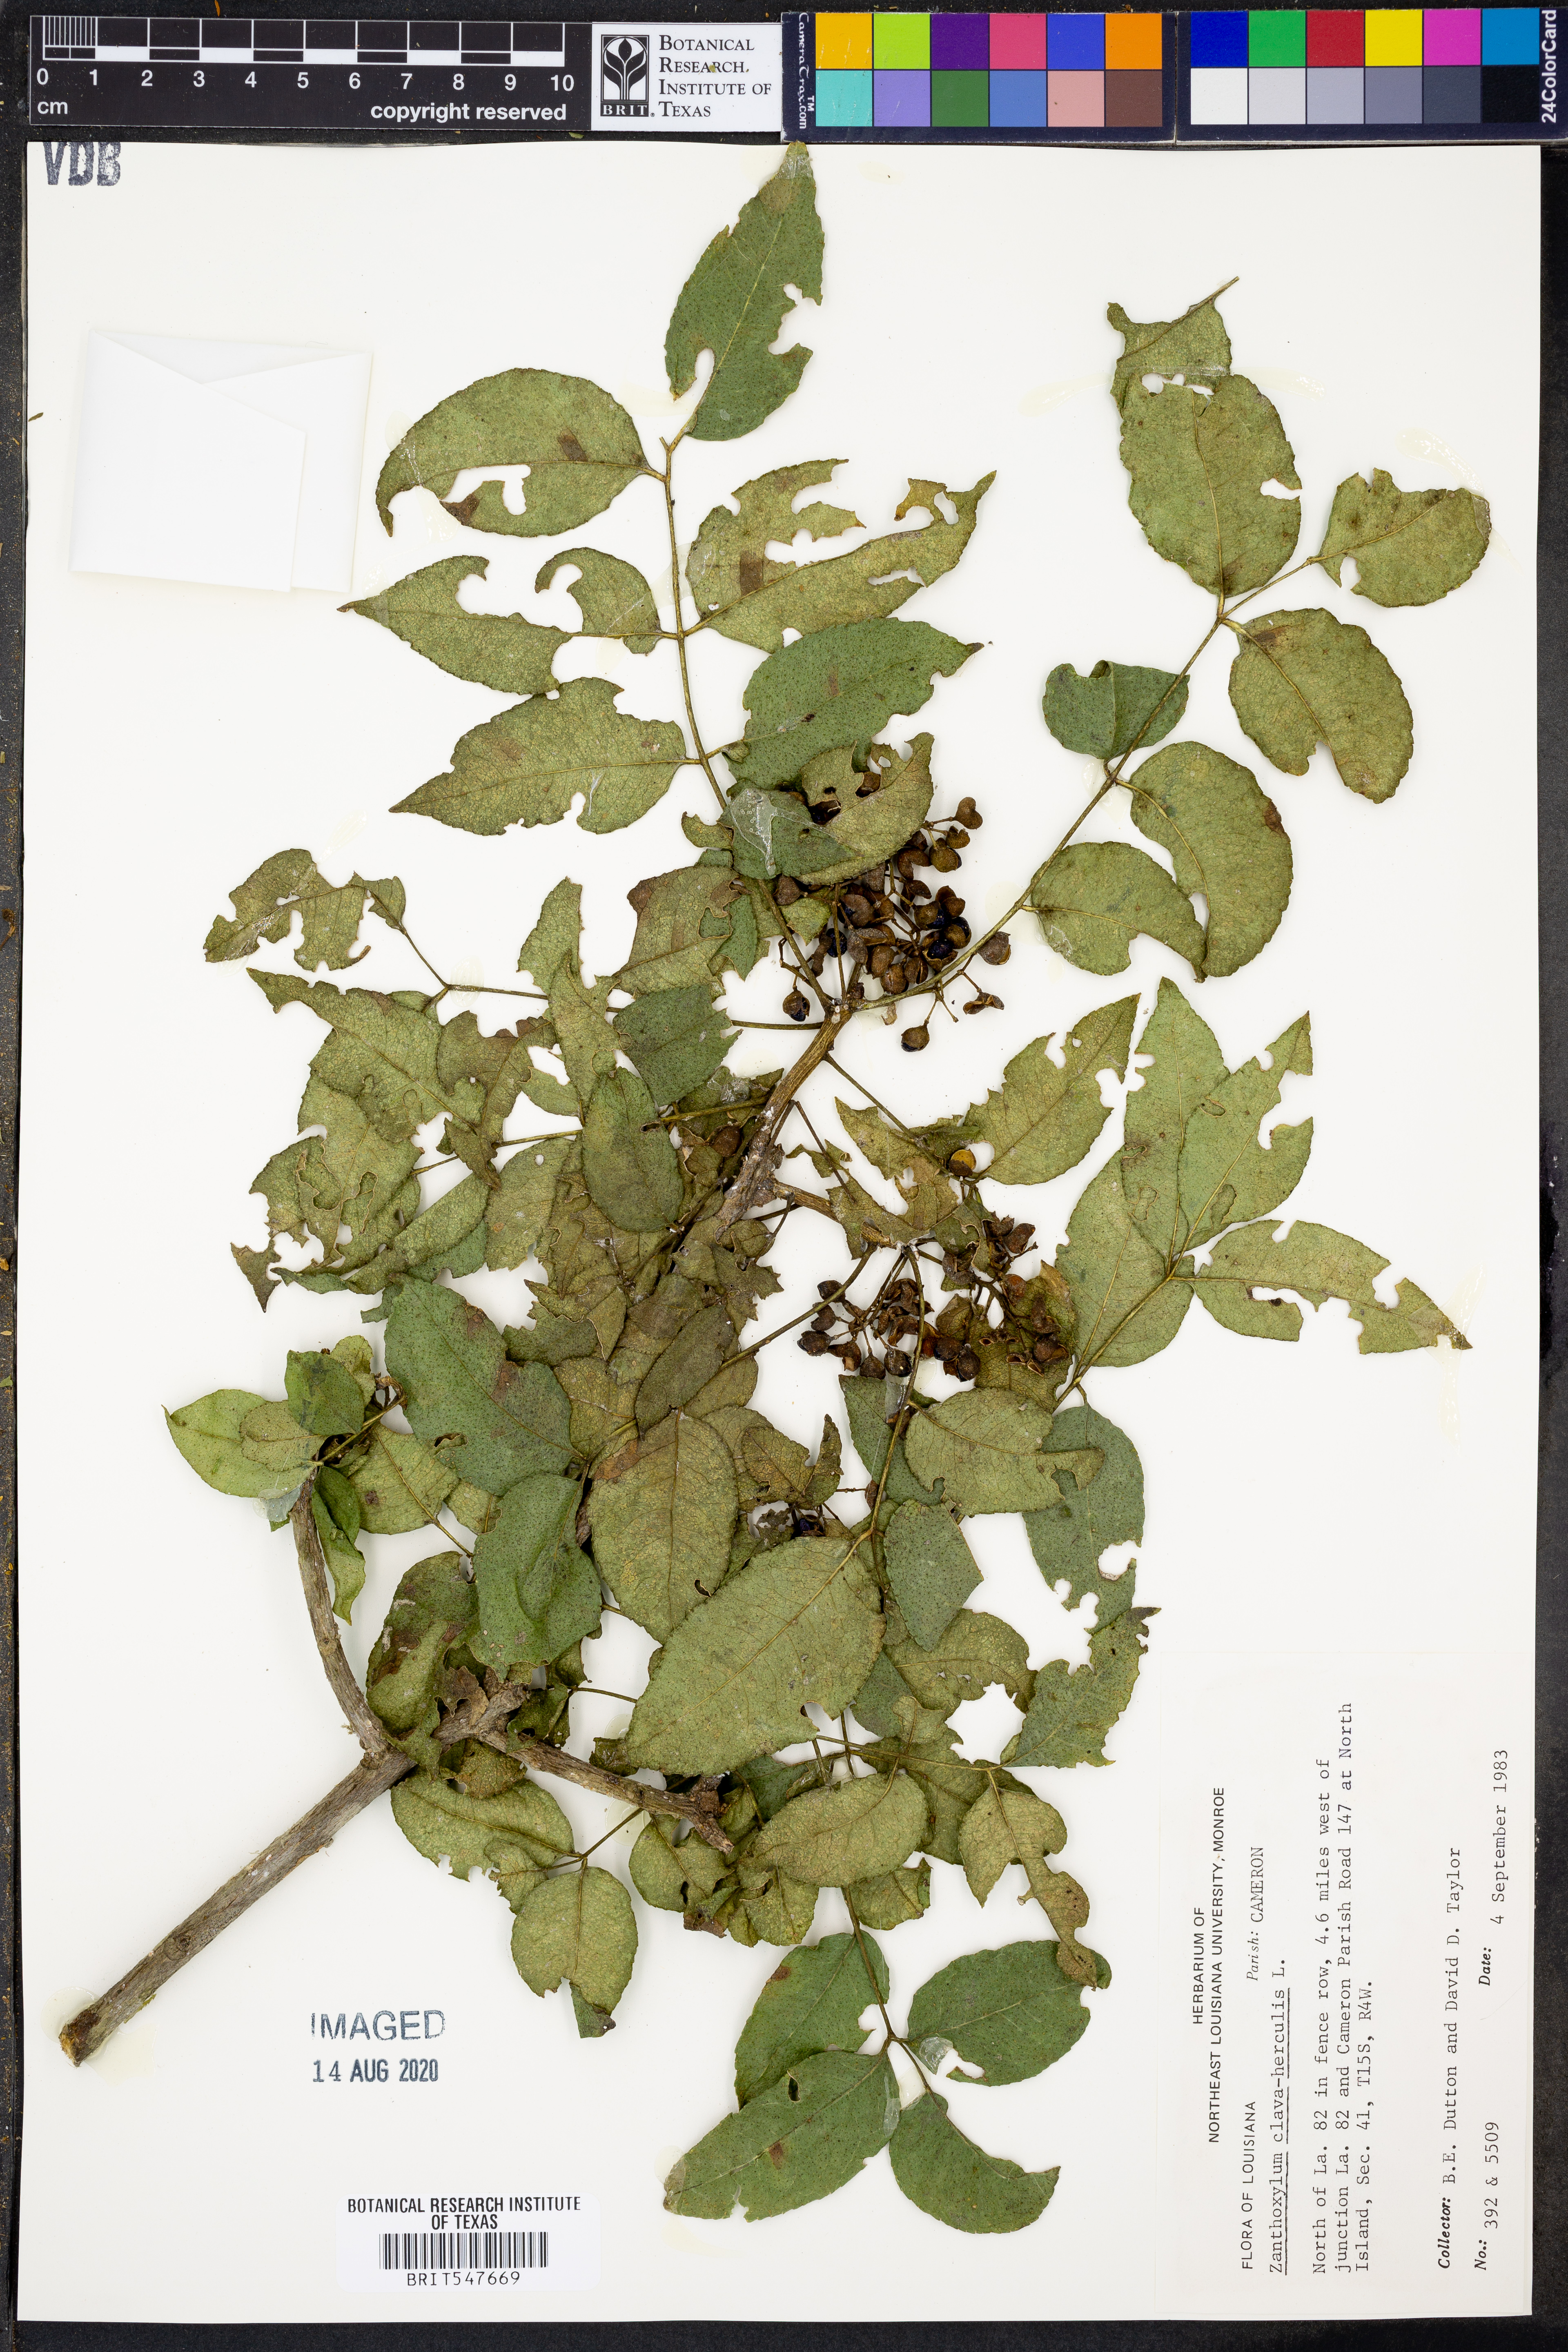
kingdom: Plantae
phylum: Tracheophyta
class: Magnoliopsida
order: Sapindales
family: Rutaceae
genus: Zanthoxylum
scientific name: Zanthoxylum avicennae
